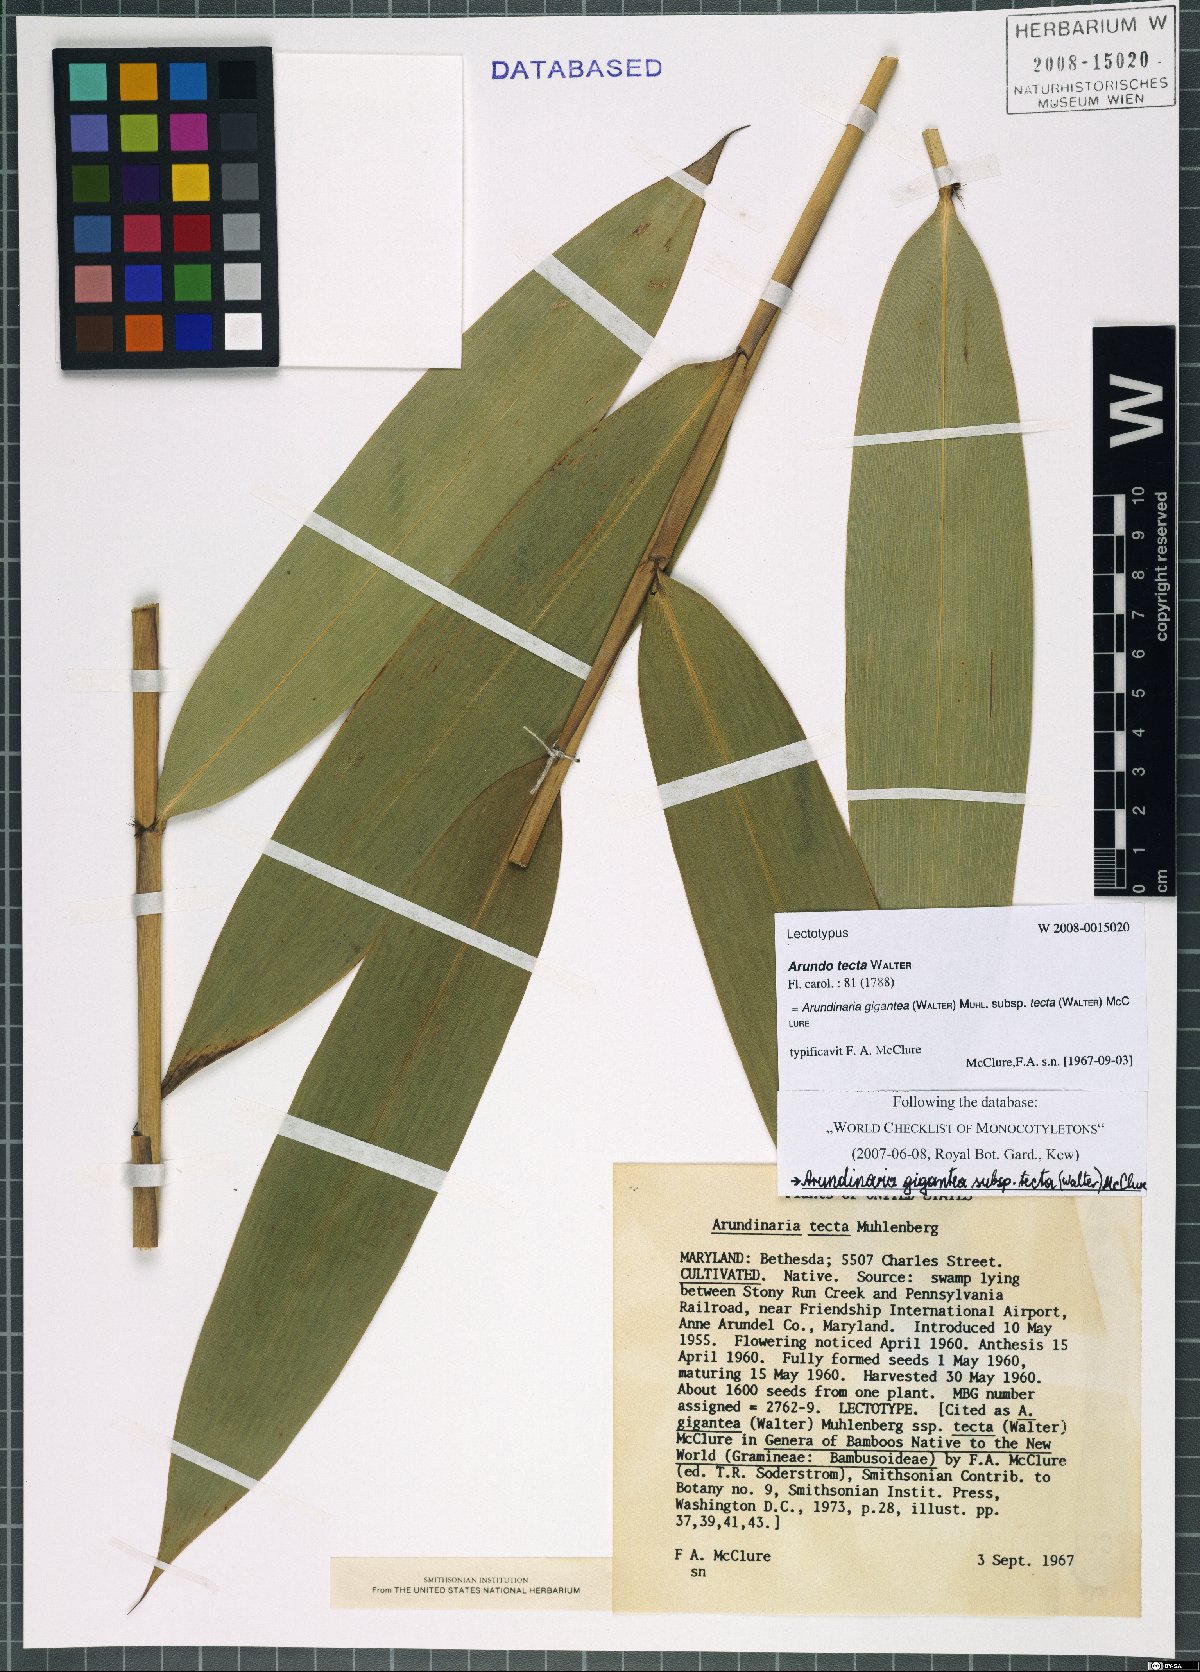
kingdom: Plantae
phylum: Tracheophyta
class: Liliopsida
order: Poales
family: Poaceae
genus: Arundinaria
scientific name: Arundinaria tecta
